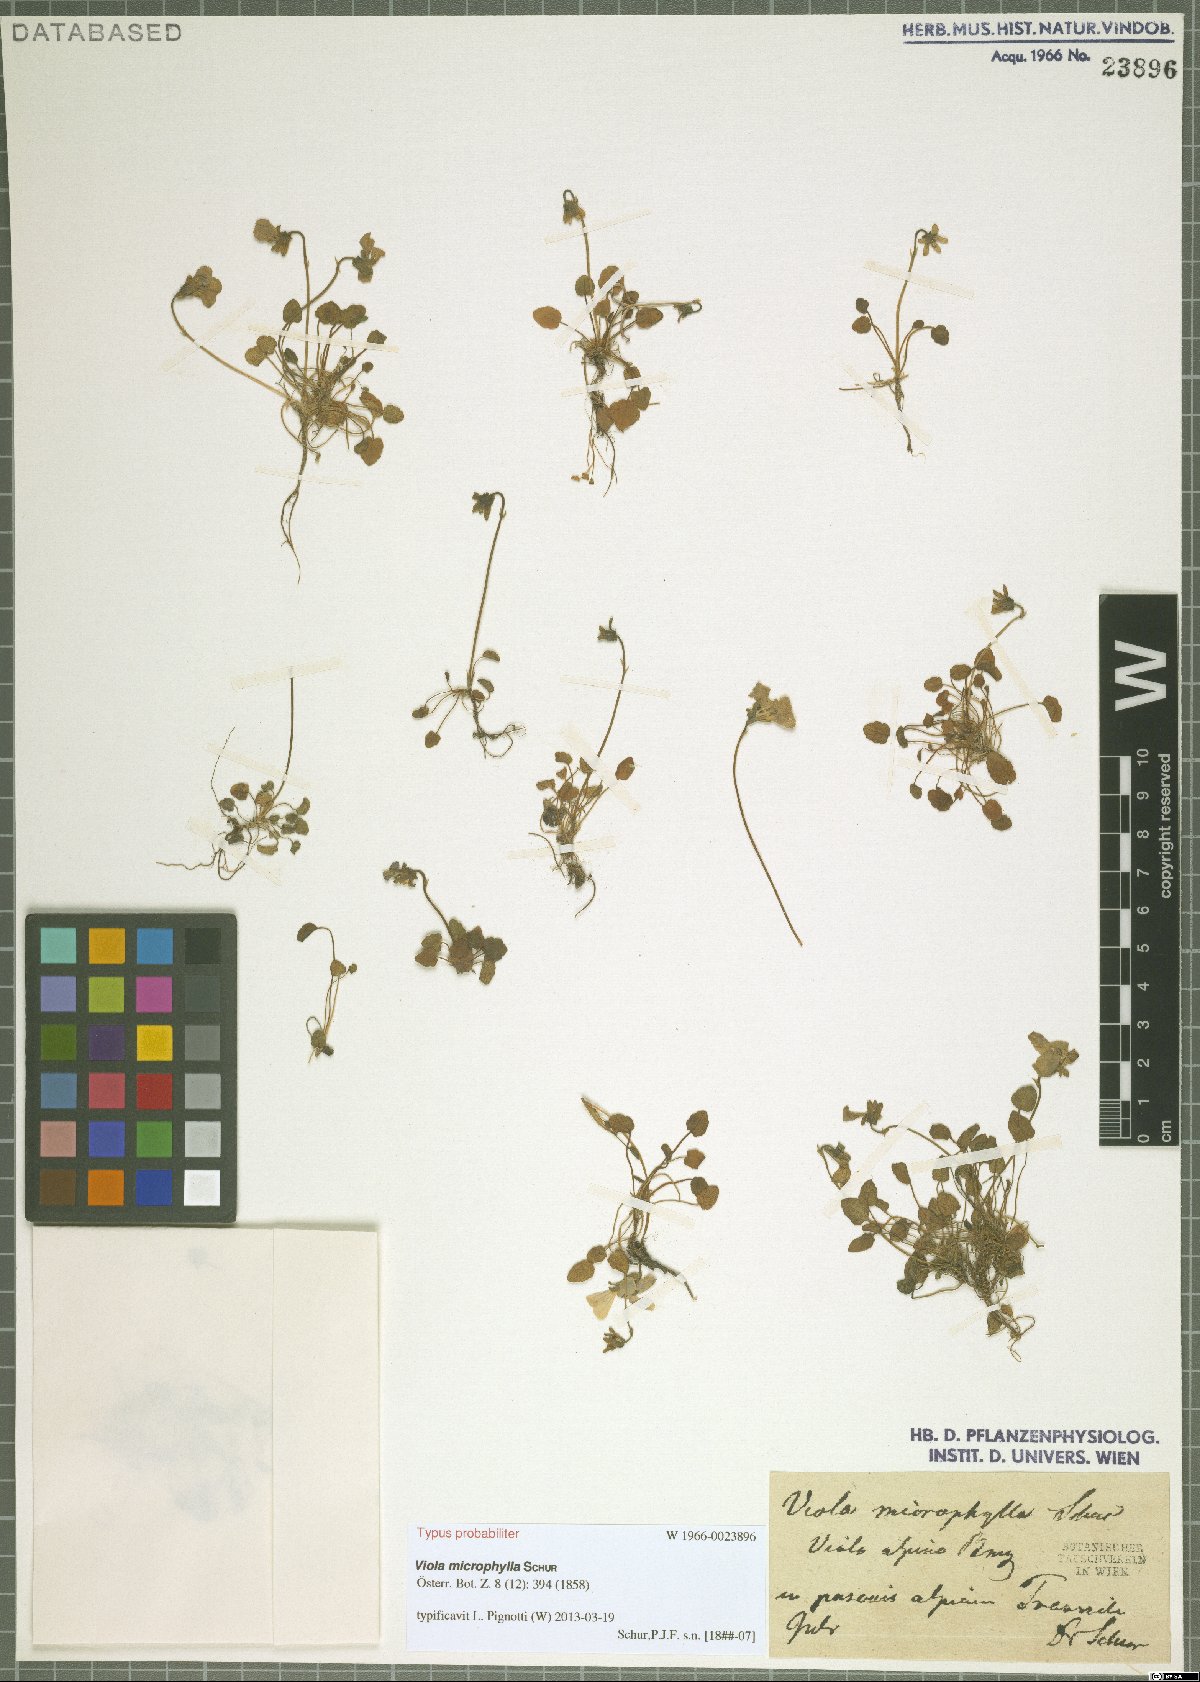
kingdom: Plantae
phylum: Tracheophyta
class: Magnoliopsida
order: Malpighiales
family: Violaceae
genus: Viola
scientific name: Viola alpina
